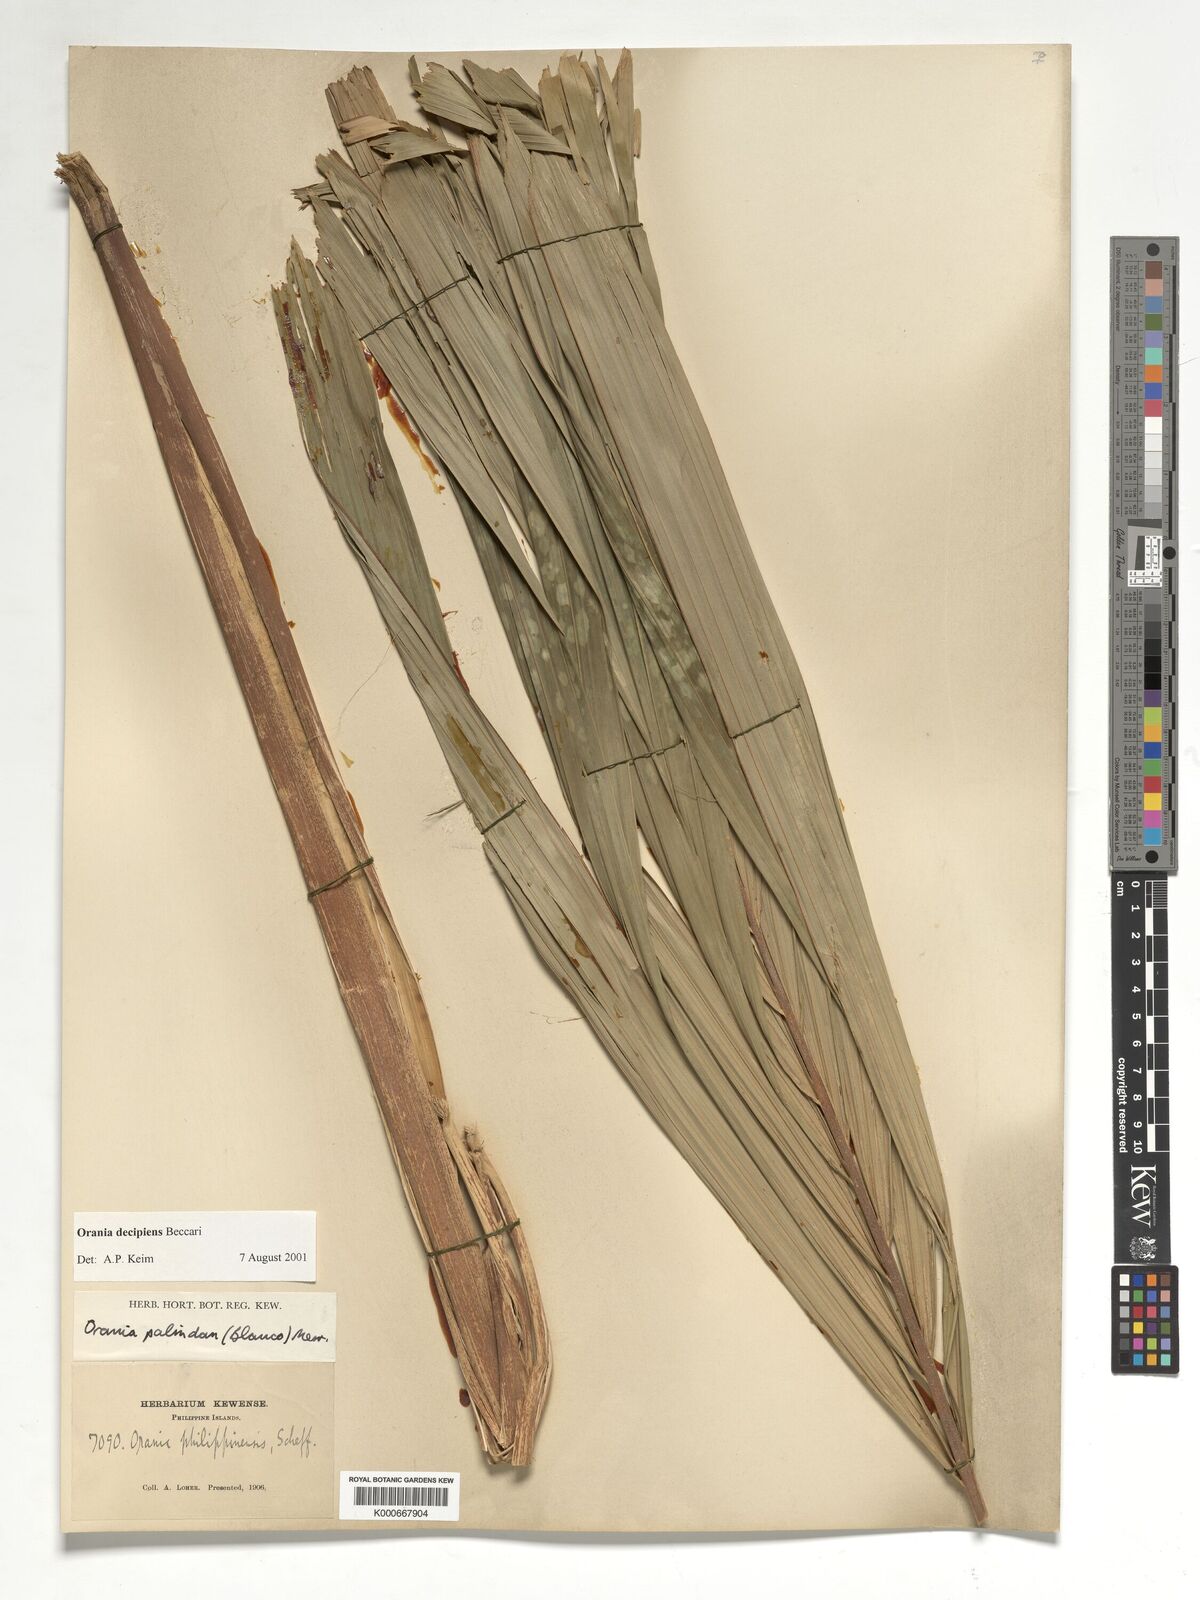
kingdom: Plantae
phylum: Tracheophyta
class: Liliopsida
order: Arecales
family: Arecaceae
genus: Orania
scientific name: Orania decipiens
